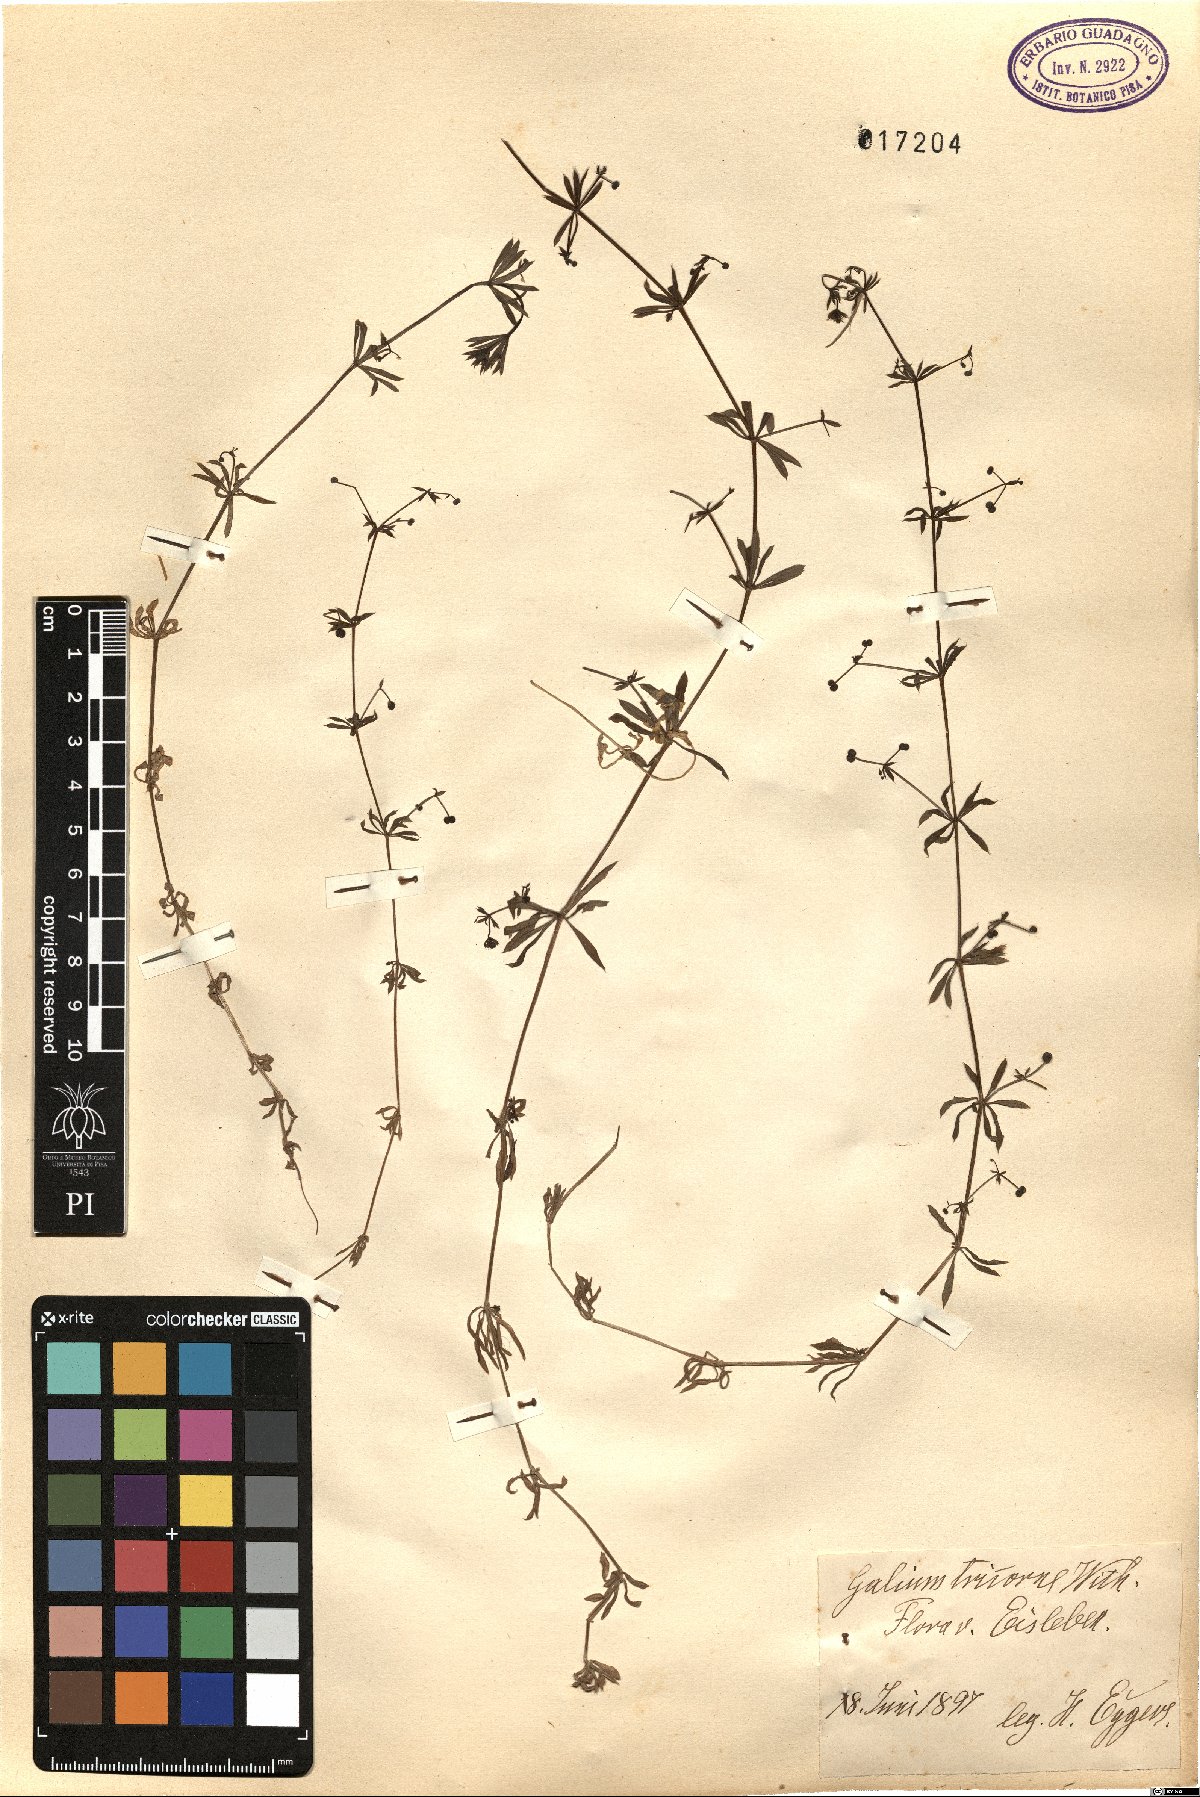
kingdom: Plantae
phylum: Tracheophyta
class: Magnoliopsida
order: Gentianales
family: Rubiaceae
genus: Galium
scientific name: Galium verrucosum
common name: Warty bedstraw
